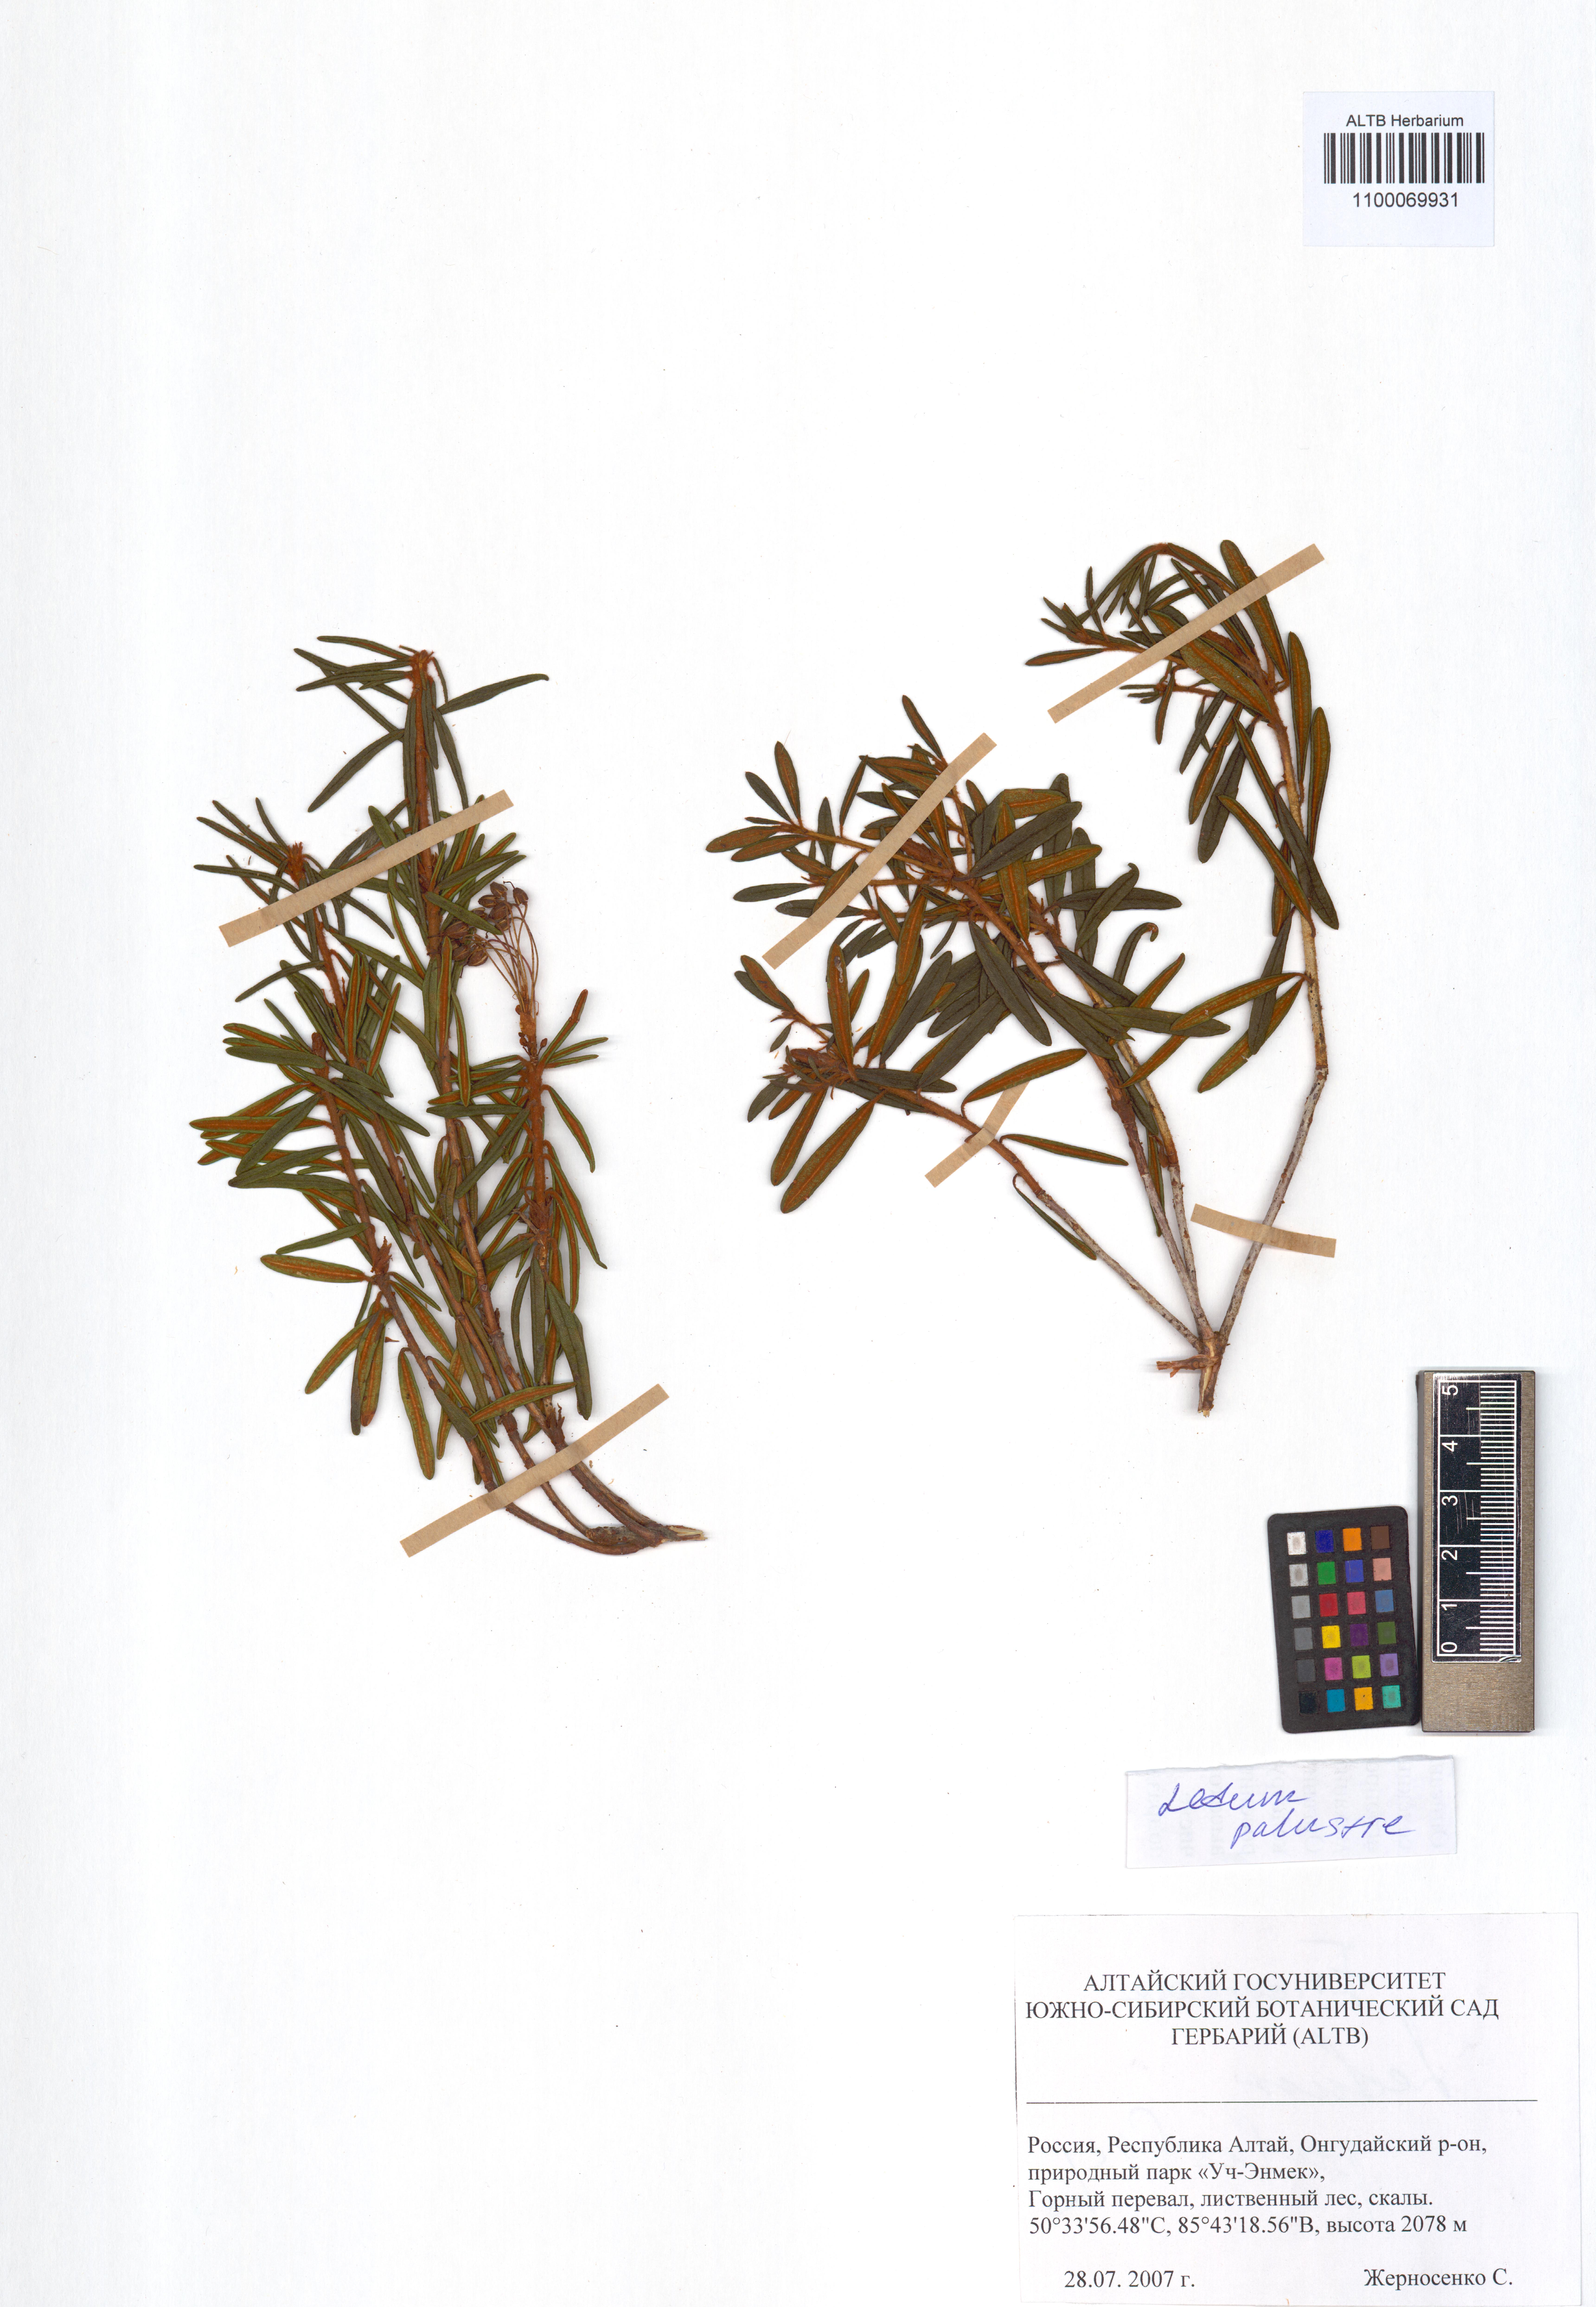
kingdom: Plantae
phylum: Tracheophyta
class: Magnoliopsida
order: Ericales
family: Ericaceae
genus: Rhododendron
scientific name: Rhododendron tomentosum
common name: Marsh labrador tea
